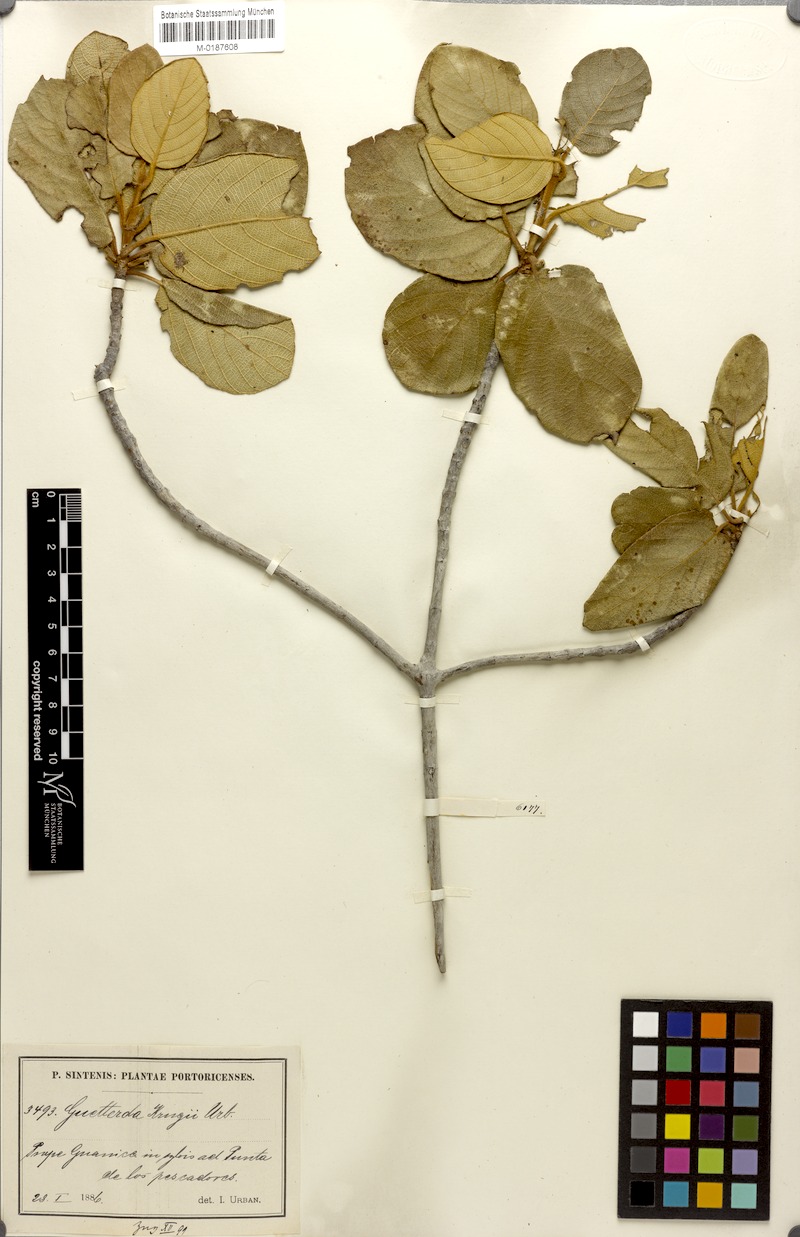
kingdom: Plantae
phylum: Tracheophyta
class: Magnoliopsida
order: Gentianales
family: Rubiaceae
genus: Guettarda
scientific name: Guettarda krugii
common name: Frogwood
